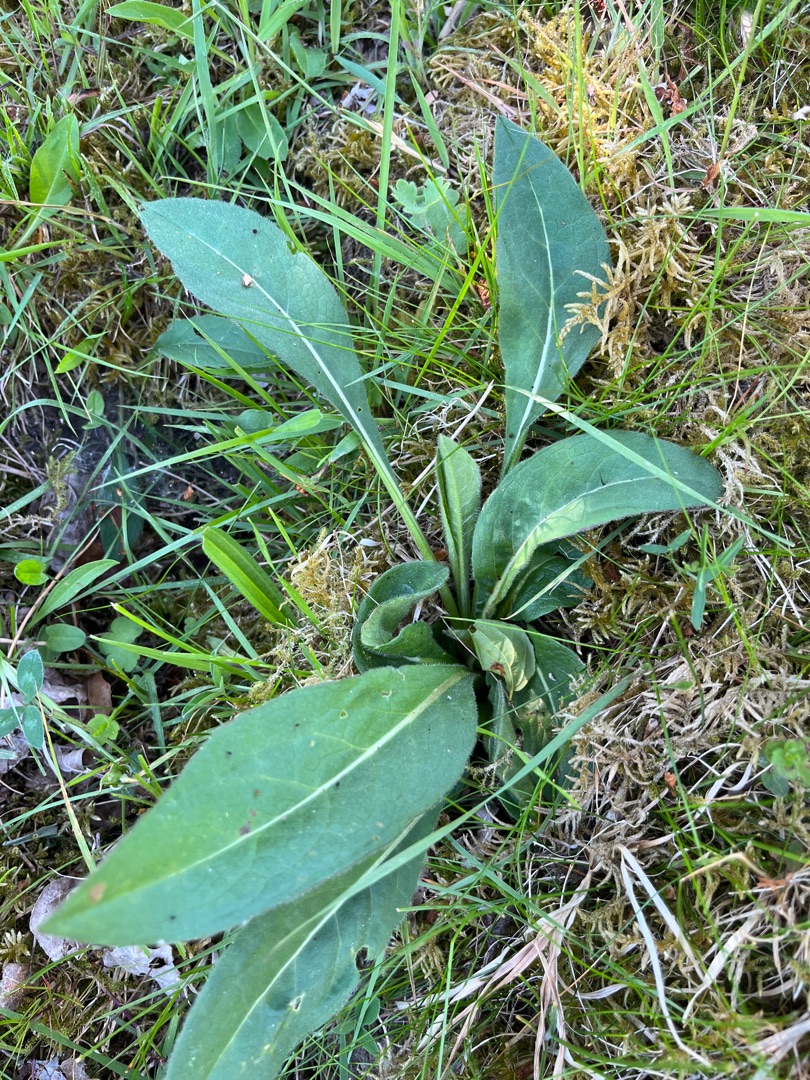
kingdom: Plantae
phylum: Tracheophyta
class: Magnoliopsida
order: Dipsacales
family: Caprifoliaceae
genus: Succisa
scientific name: Succisa pratensis
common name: Djævelsbid
